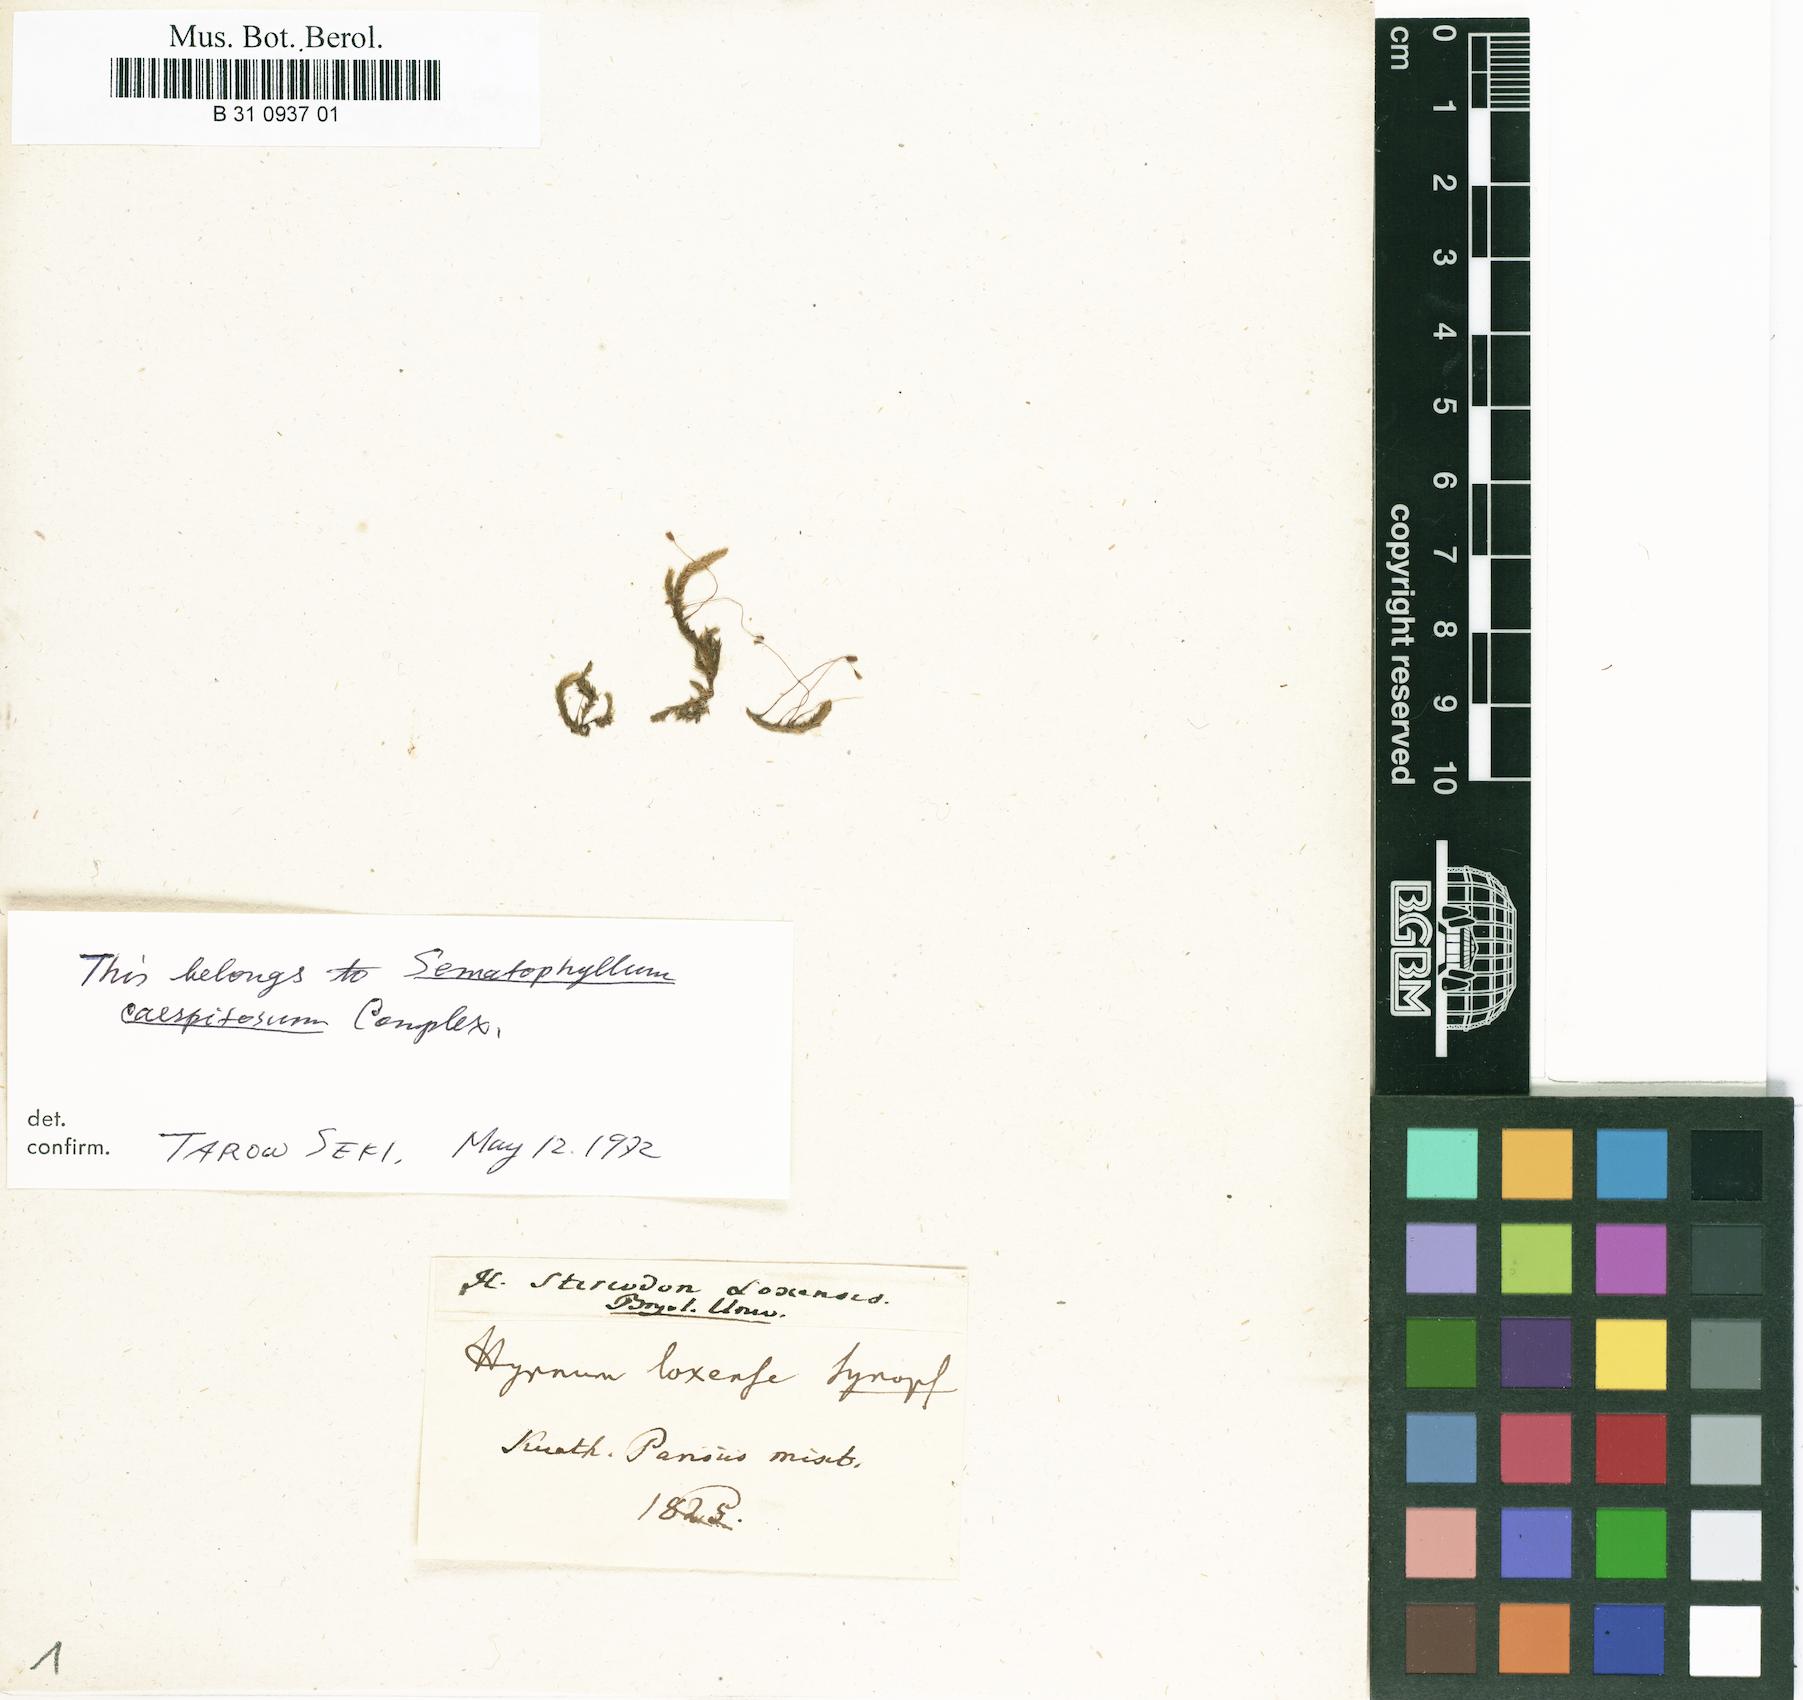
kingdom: Plantae
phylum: Bryophyta
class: Bryopsida
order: Hypnales
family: Stereodontaceae
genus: Stereodon
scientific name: Stereodon loxensis
